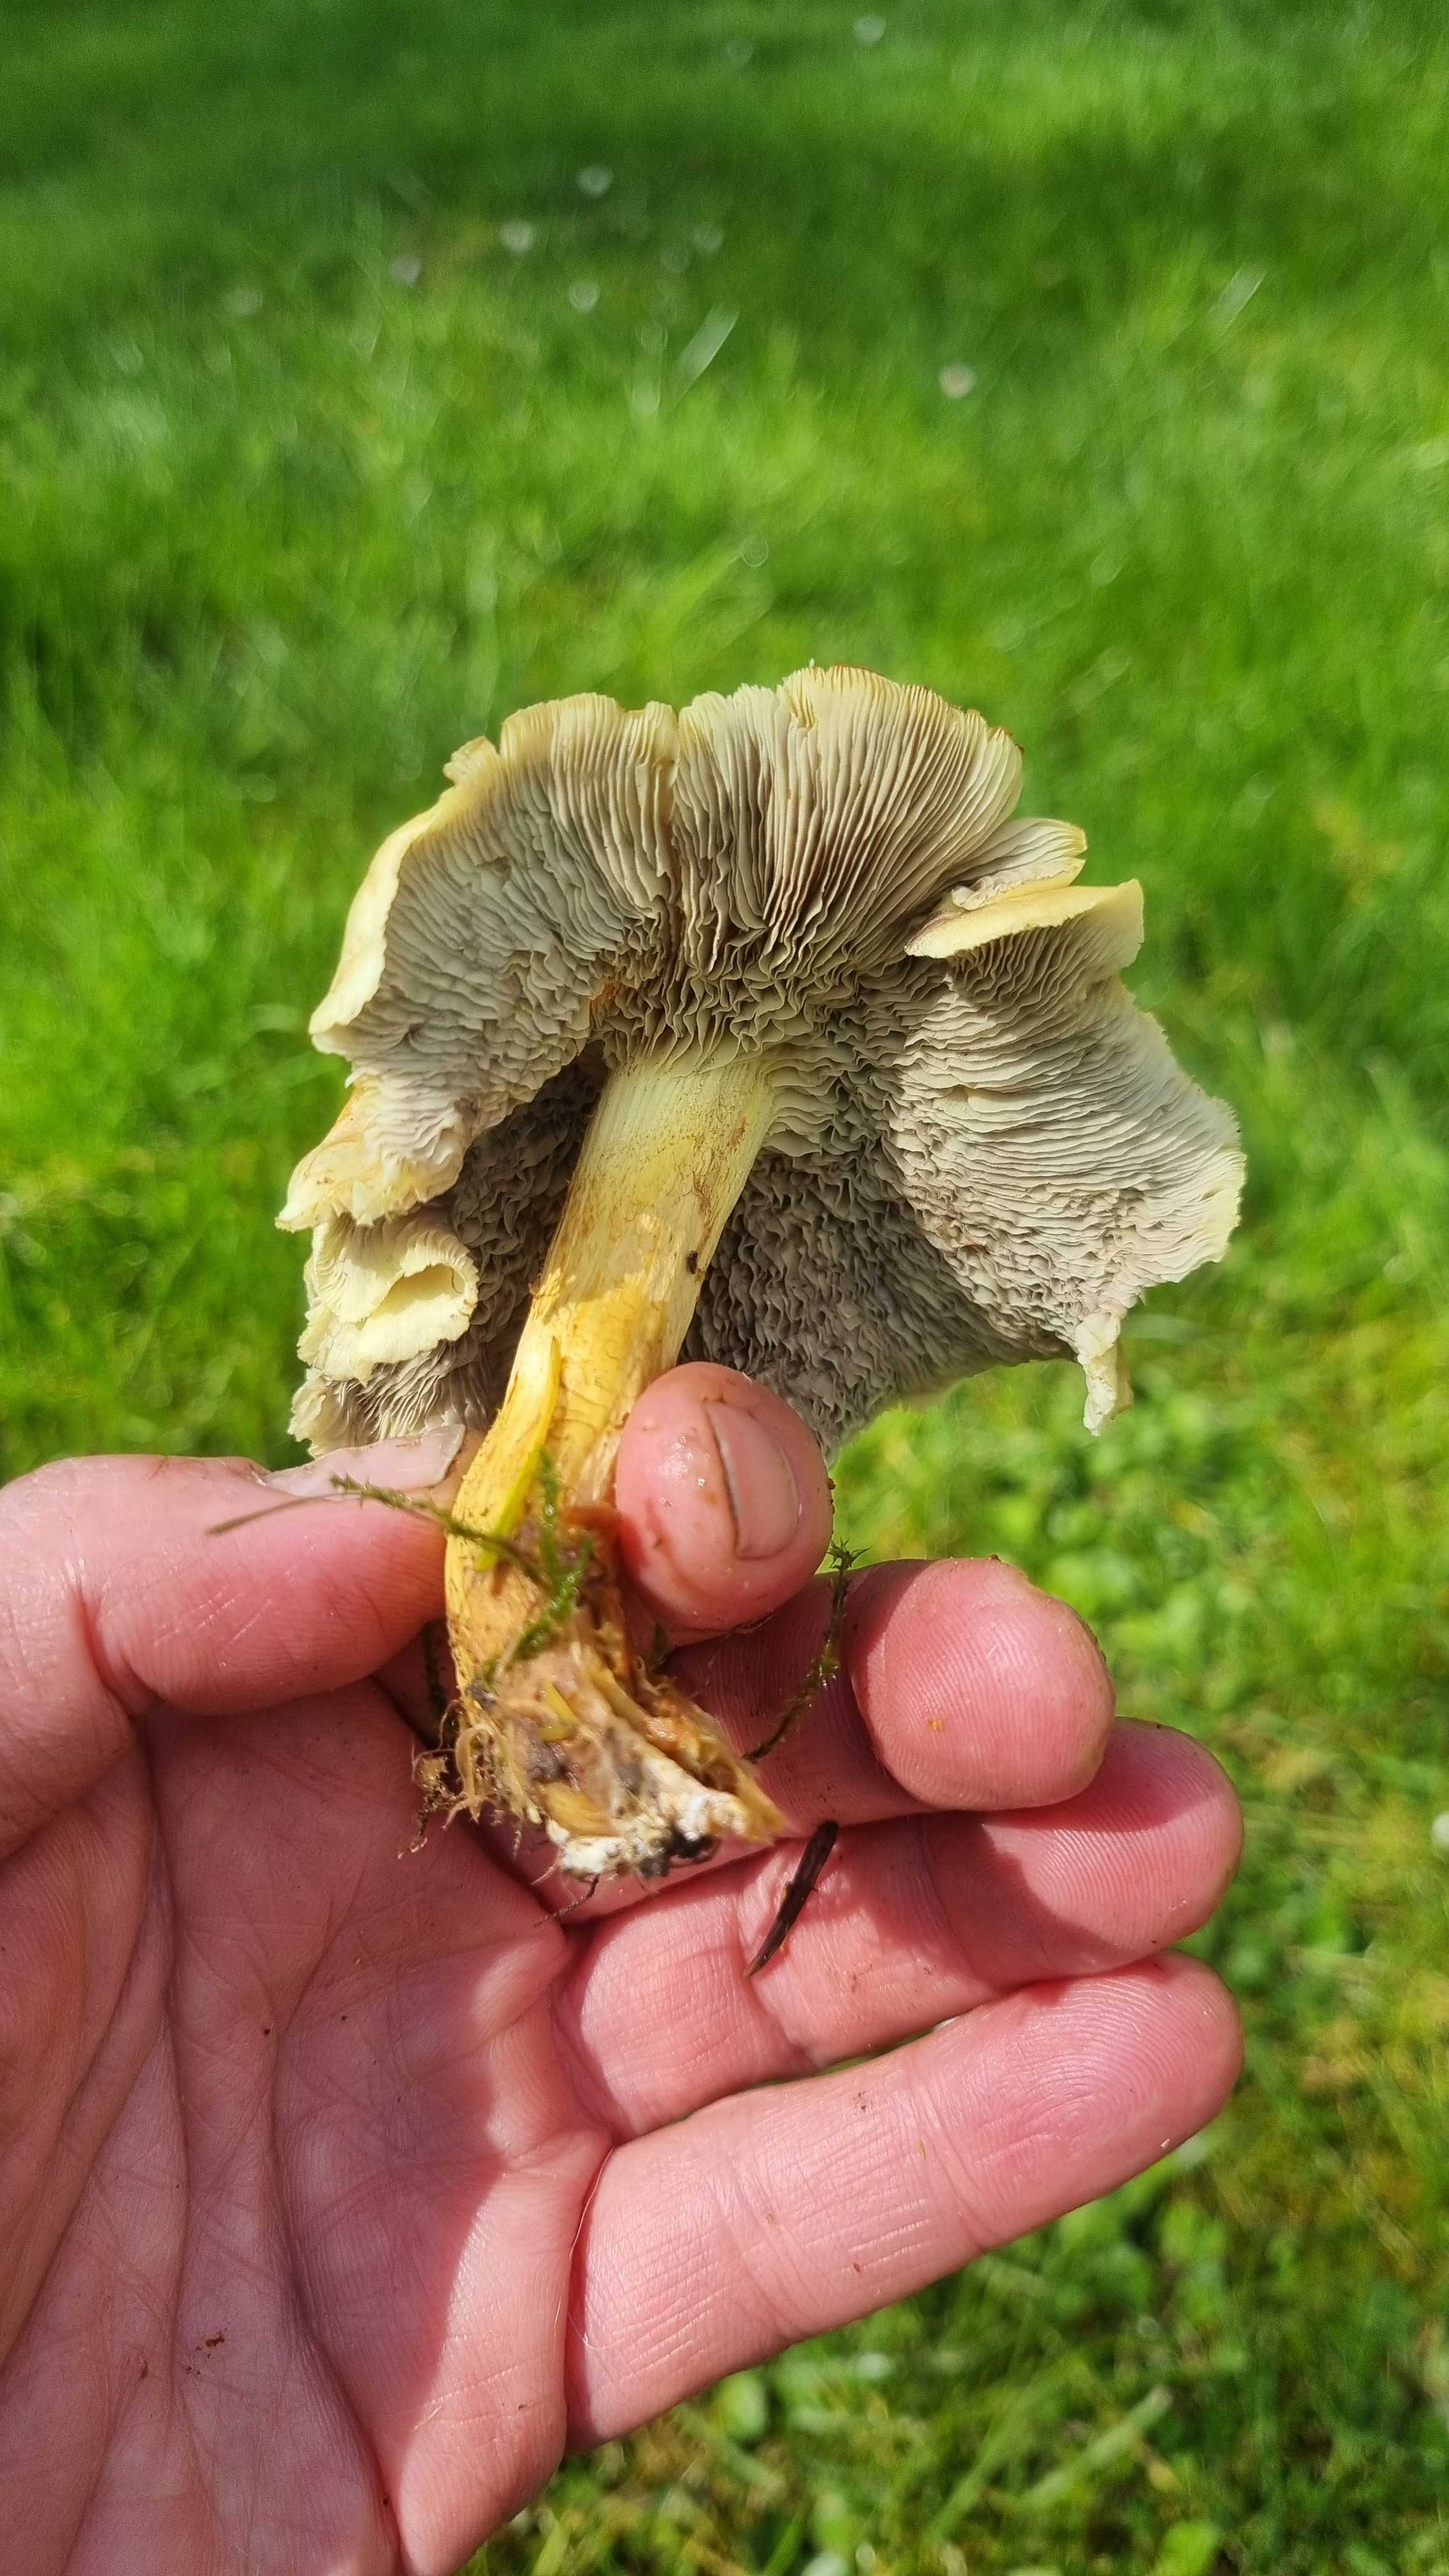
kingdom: Fungi
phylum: Basidiomycota
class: Agaricomycetes
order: Agaricales
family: Strophariaceae
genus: Hypholoma
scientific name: Hypholoma fasciculare
